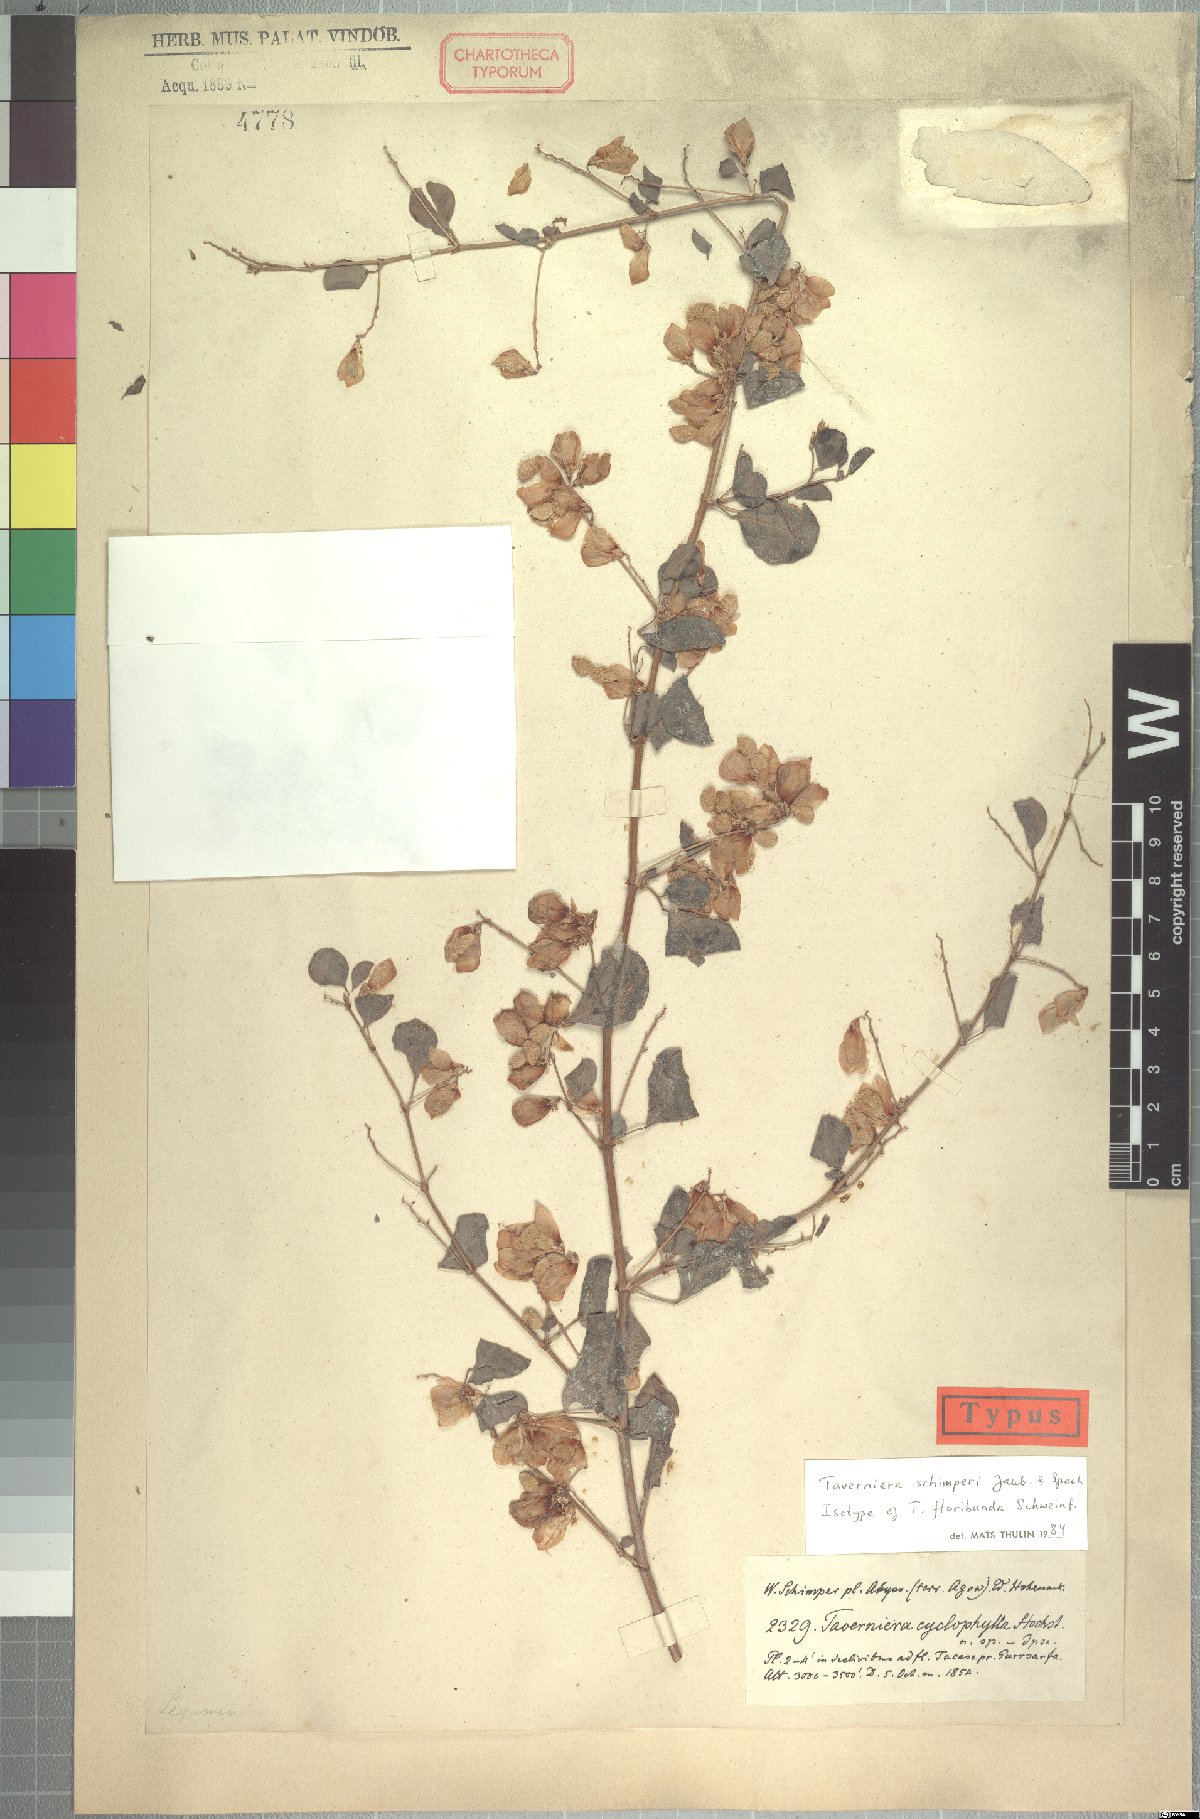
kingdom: Plantae
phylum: Tracheophyta
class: Magnoliopsida
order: Fabales
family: Fabaceae
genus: Taverniera
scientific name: Taverniera schimperi
